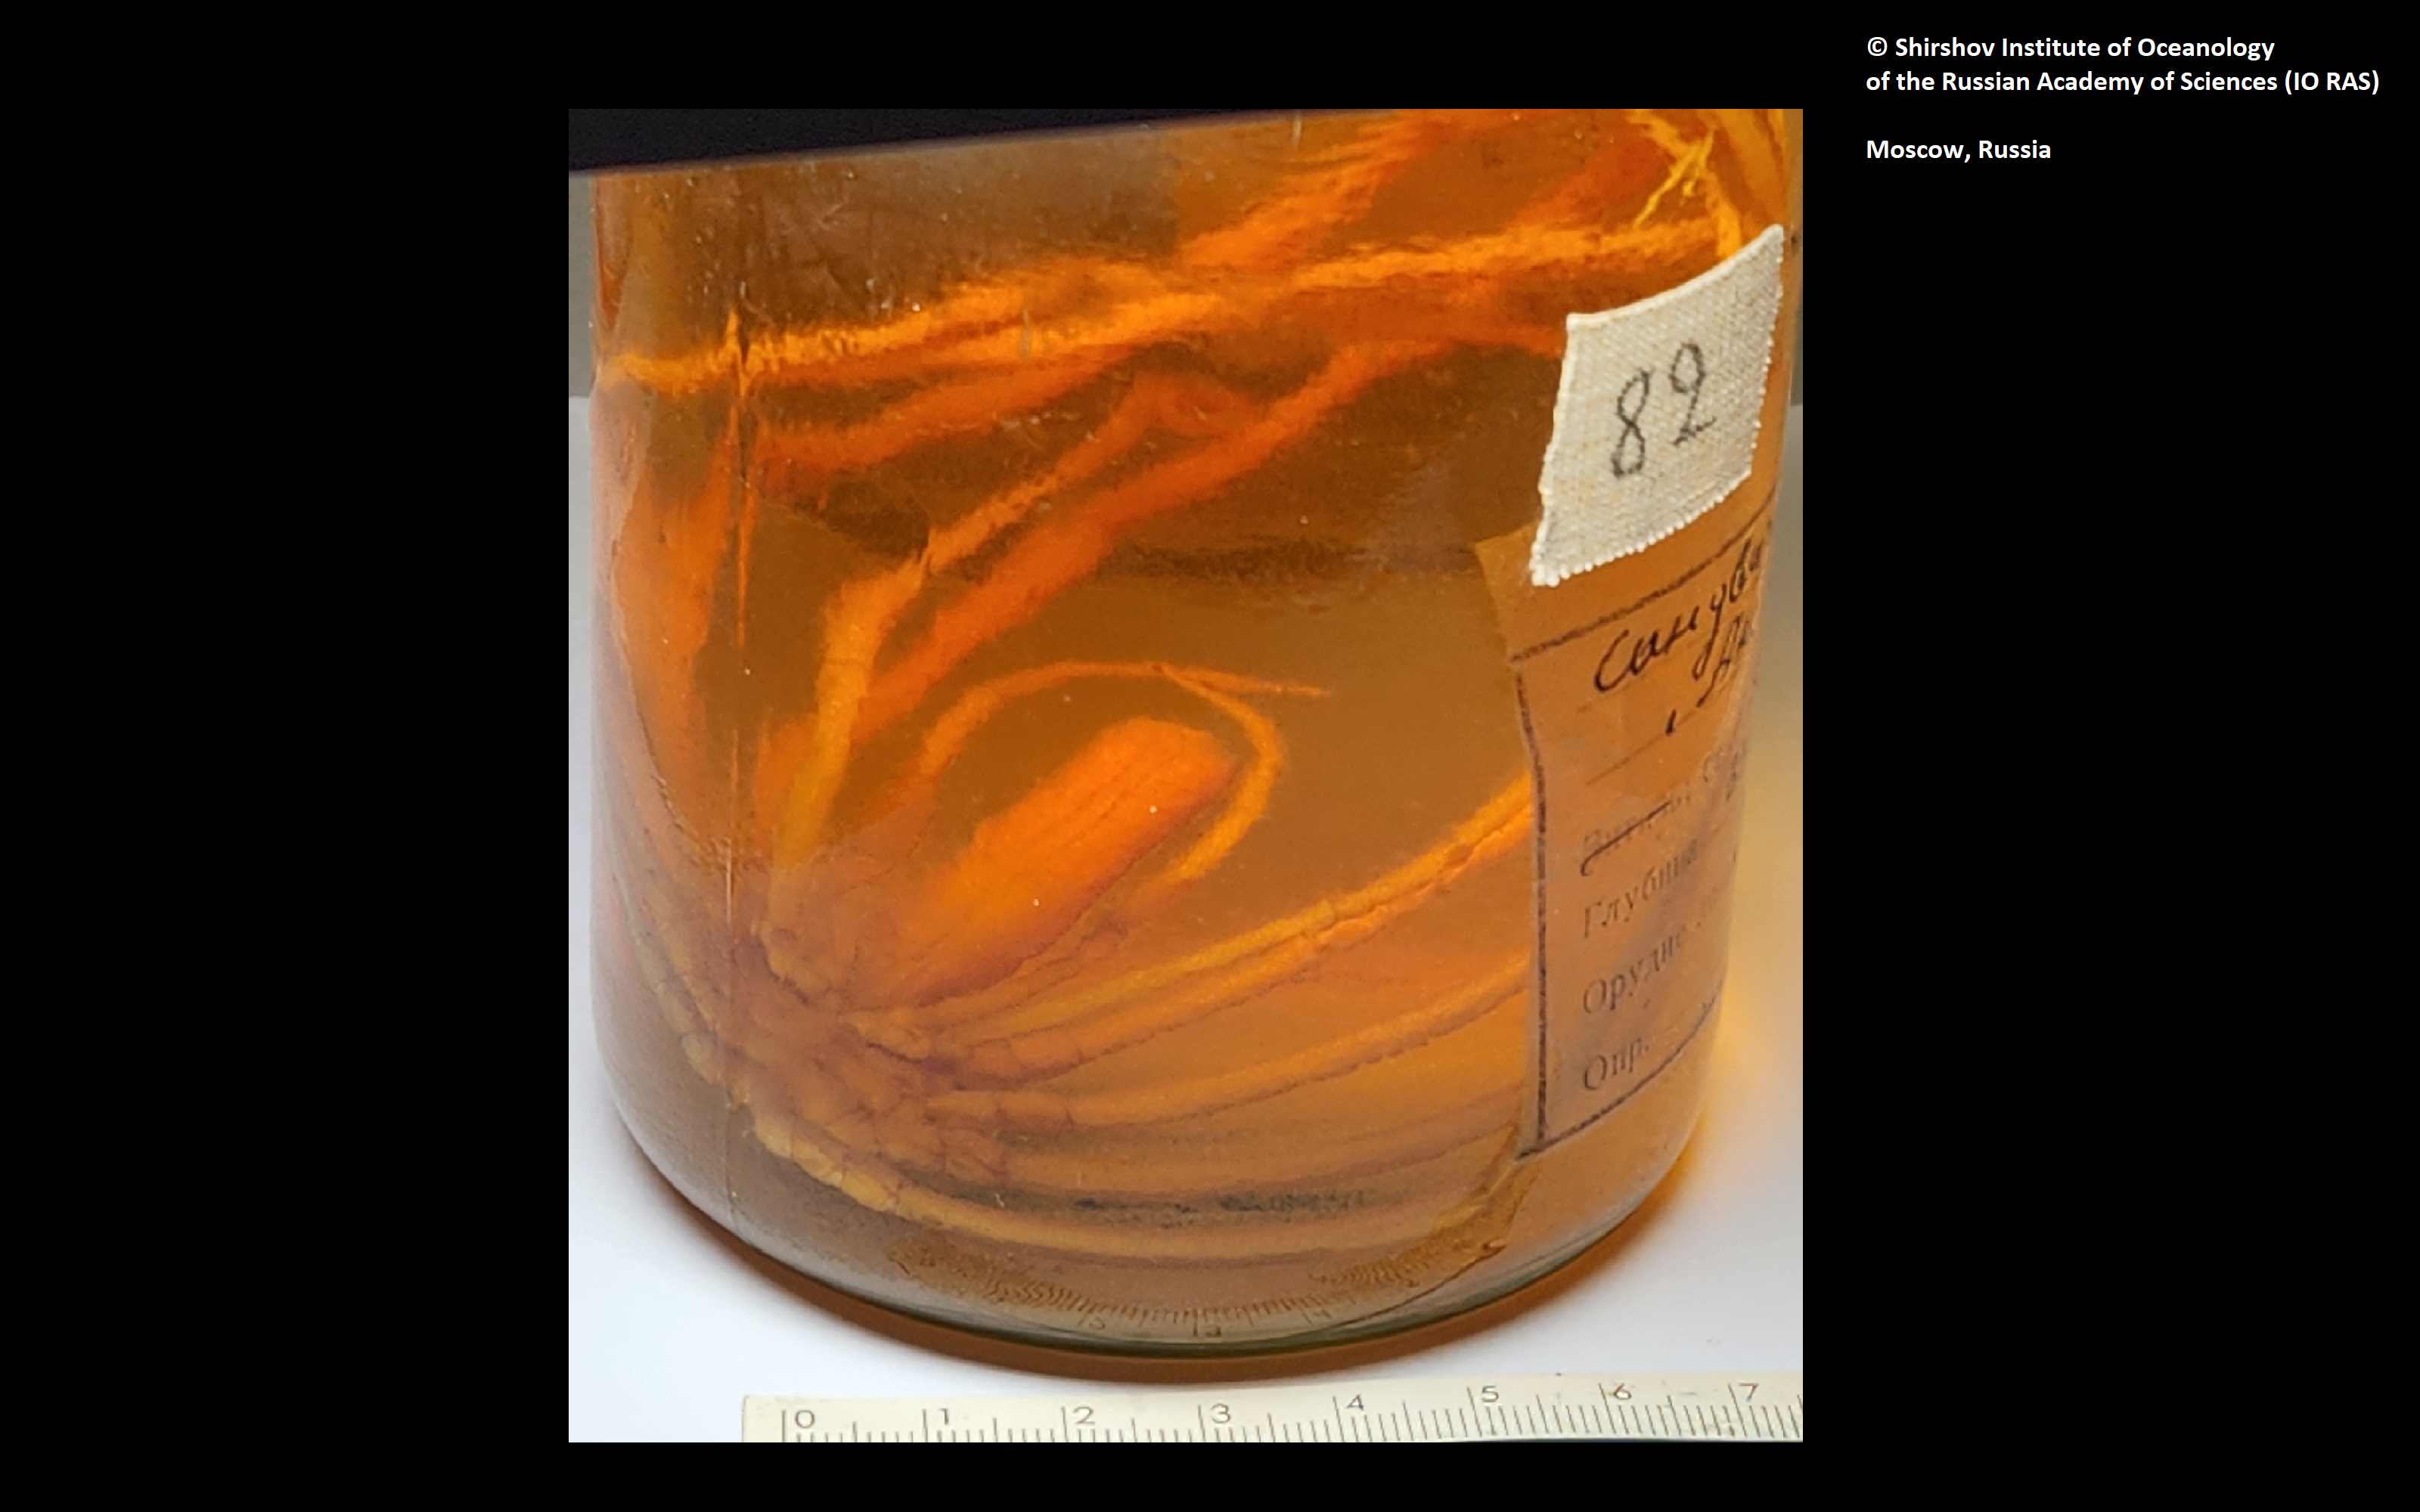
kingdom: Animalia
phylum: Arthropoda
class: Pycnogonida
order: Pantopoda
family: Colossendeidae
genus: Colossendeis
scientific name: Colossendeis tethya
